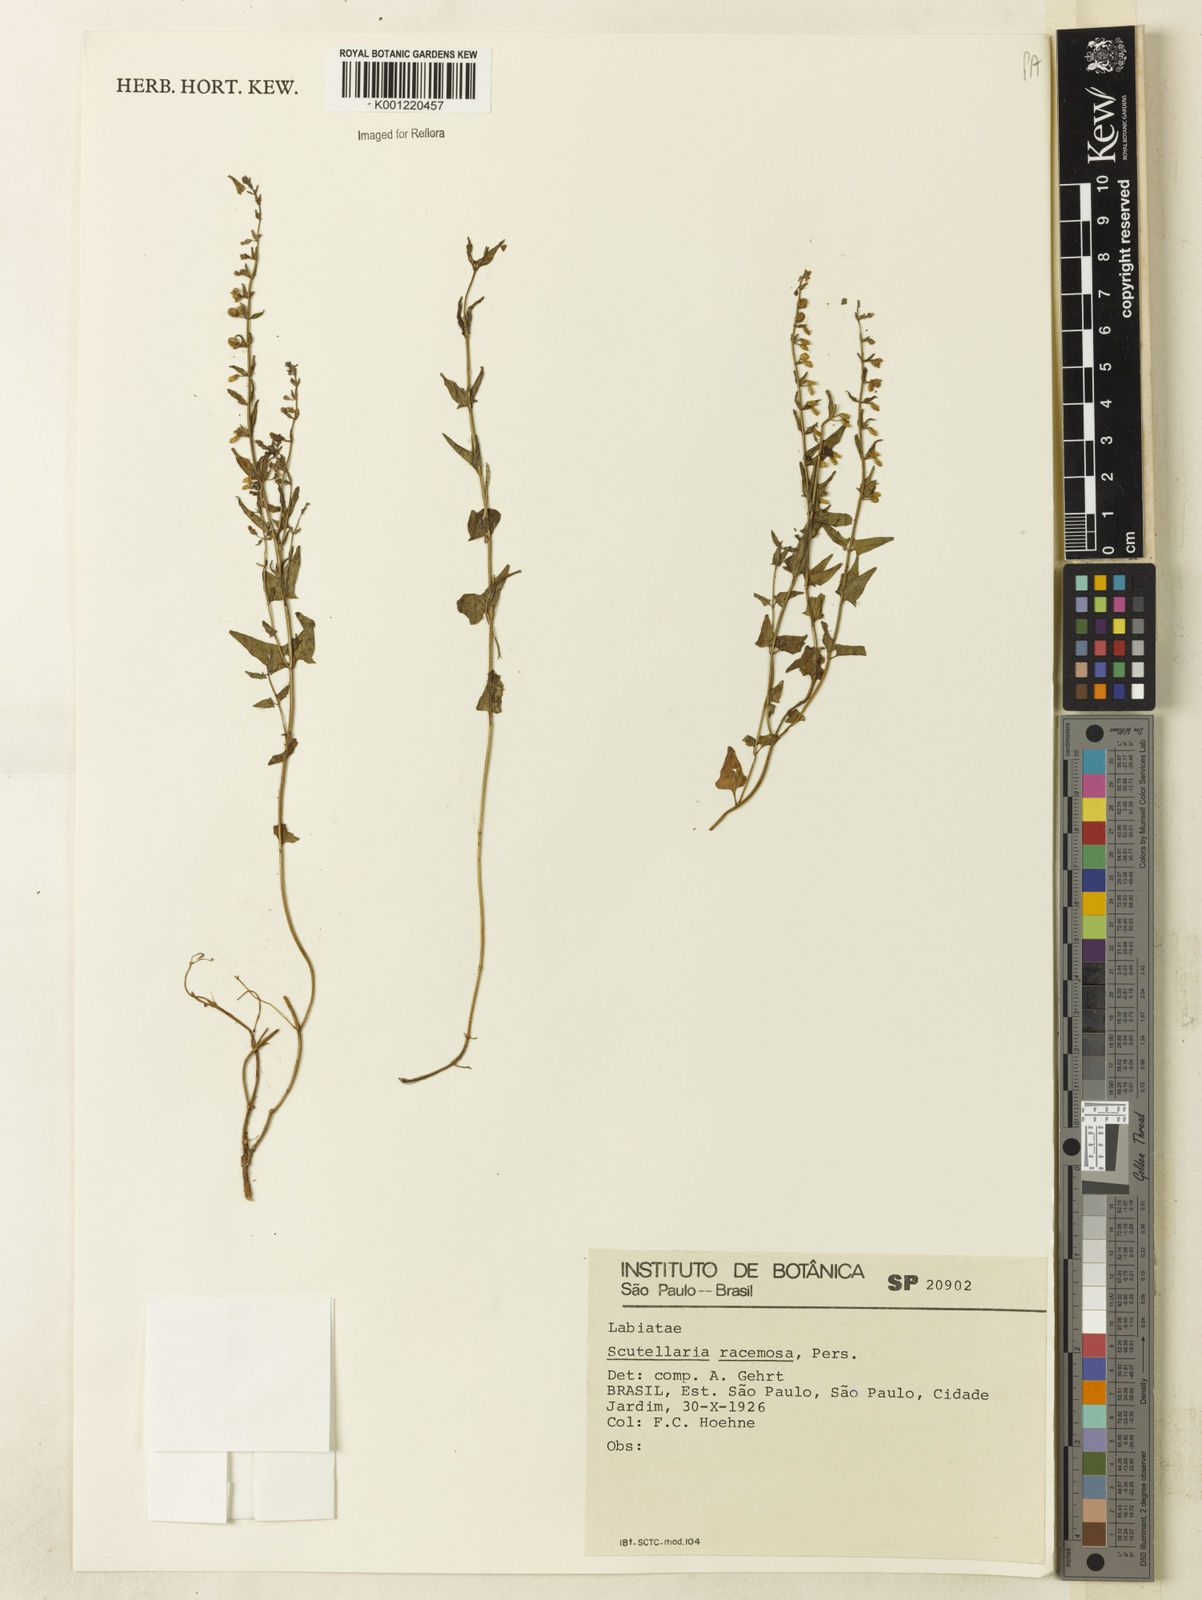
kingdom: Plantae
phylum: Tracheophyta
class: Magnoliopsida
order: Lamiales
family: Lamiaceae
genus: Scutellaria
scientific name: Scutellaria racemosa
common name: South american skullcap
